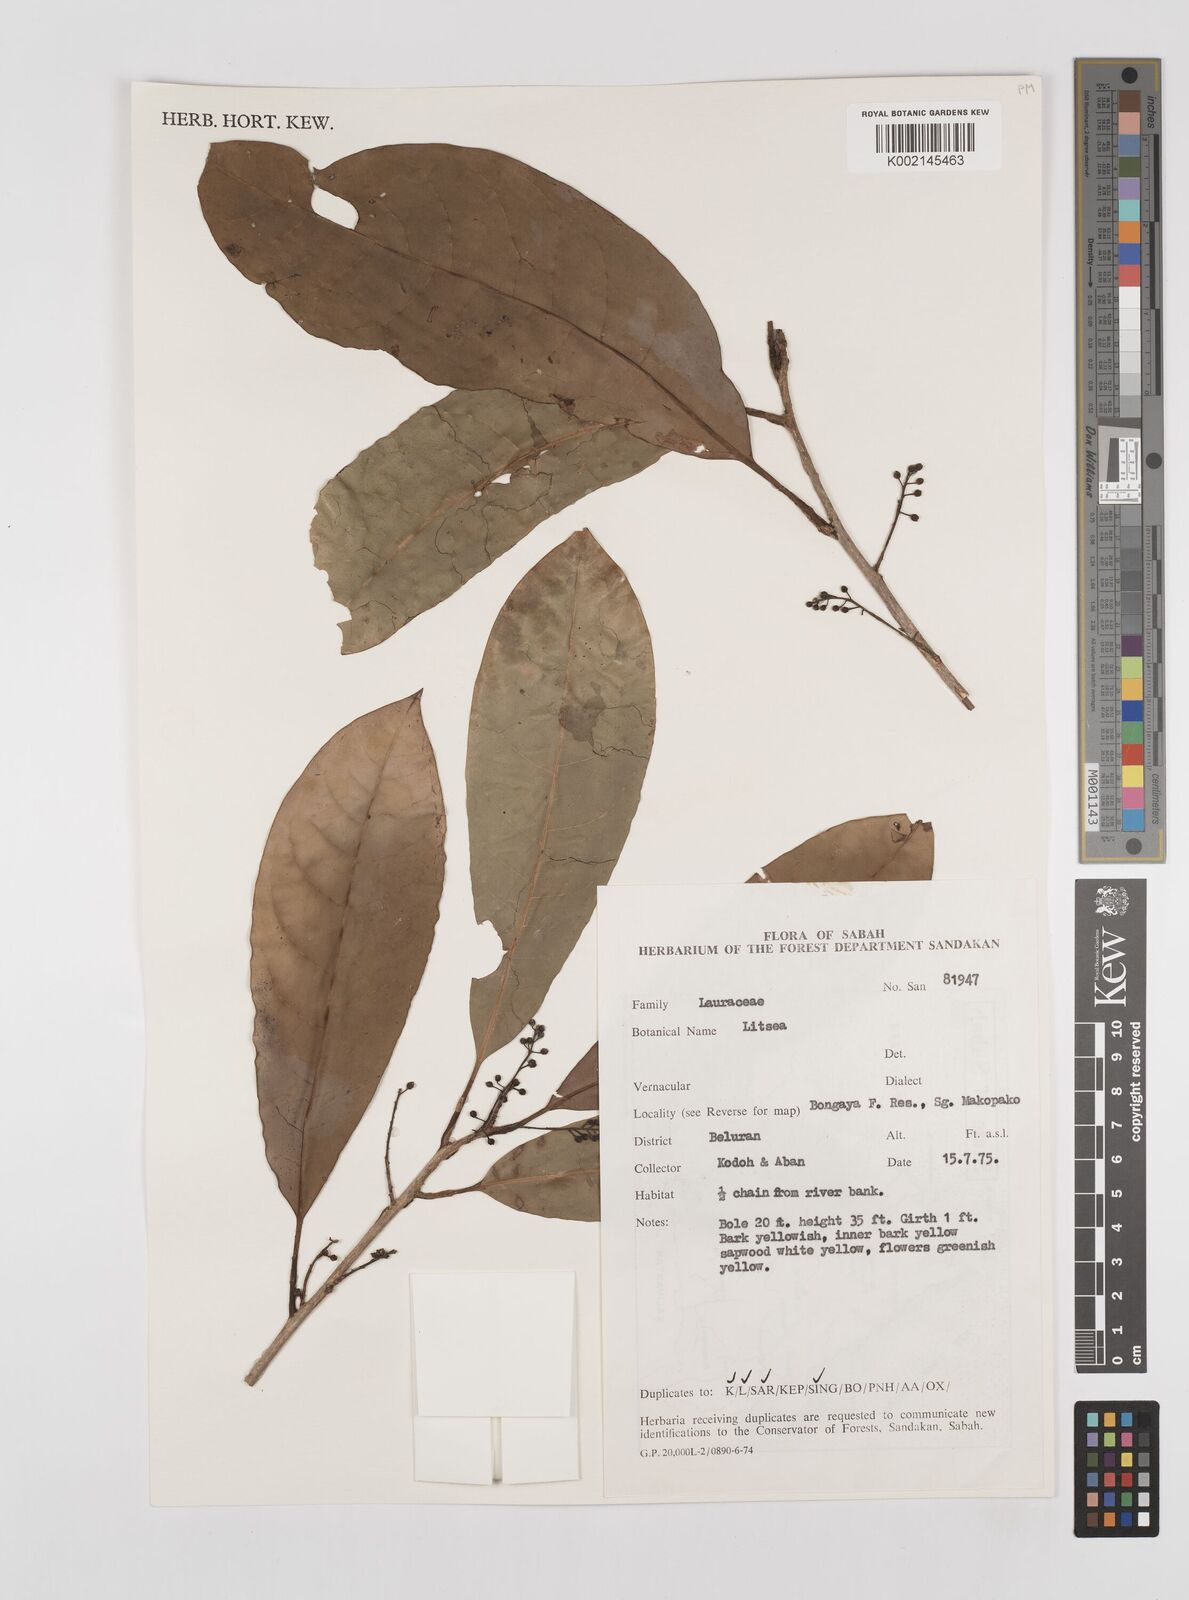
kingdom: Plantae
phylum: Tracheophyta
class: Magnoliopsida
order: Laurales
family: Lauraceae
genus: Litsea
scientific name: Litsea
